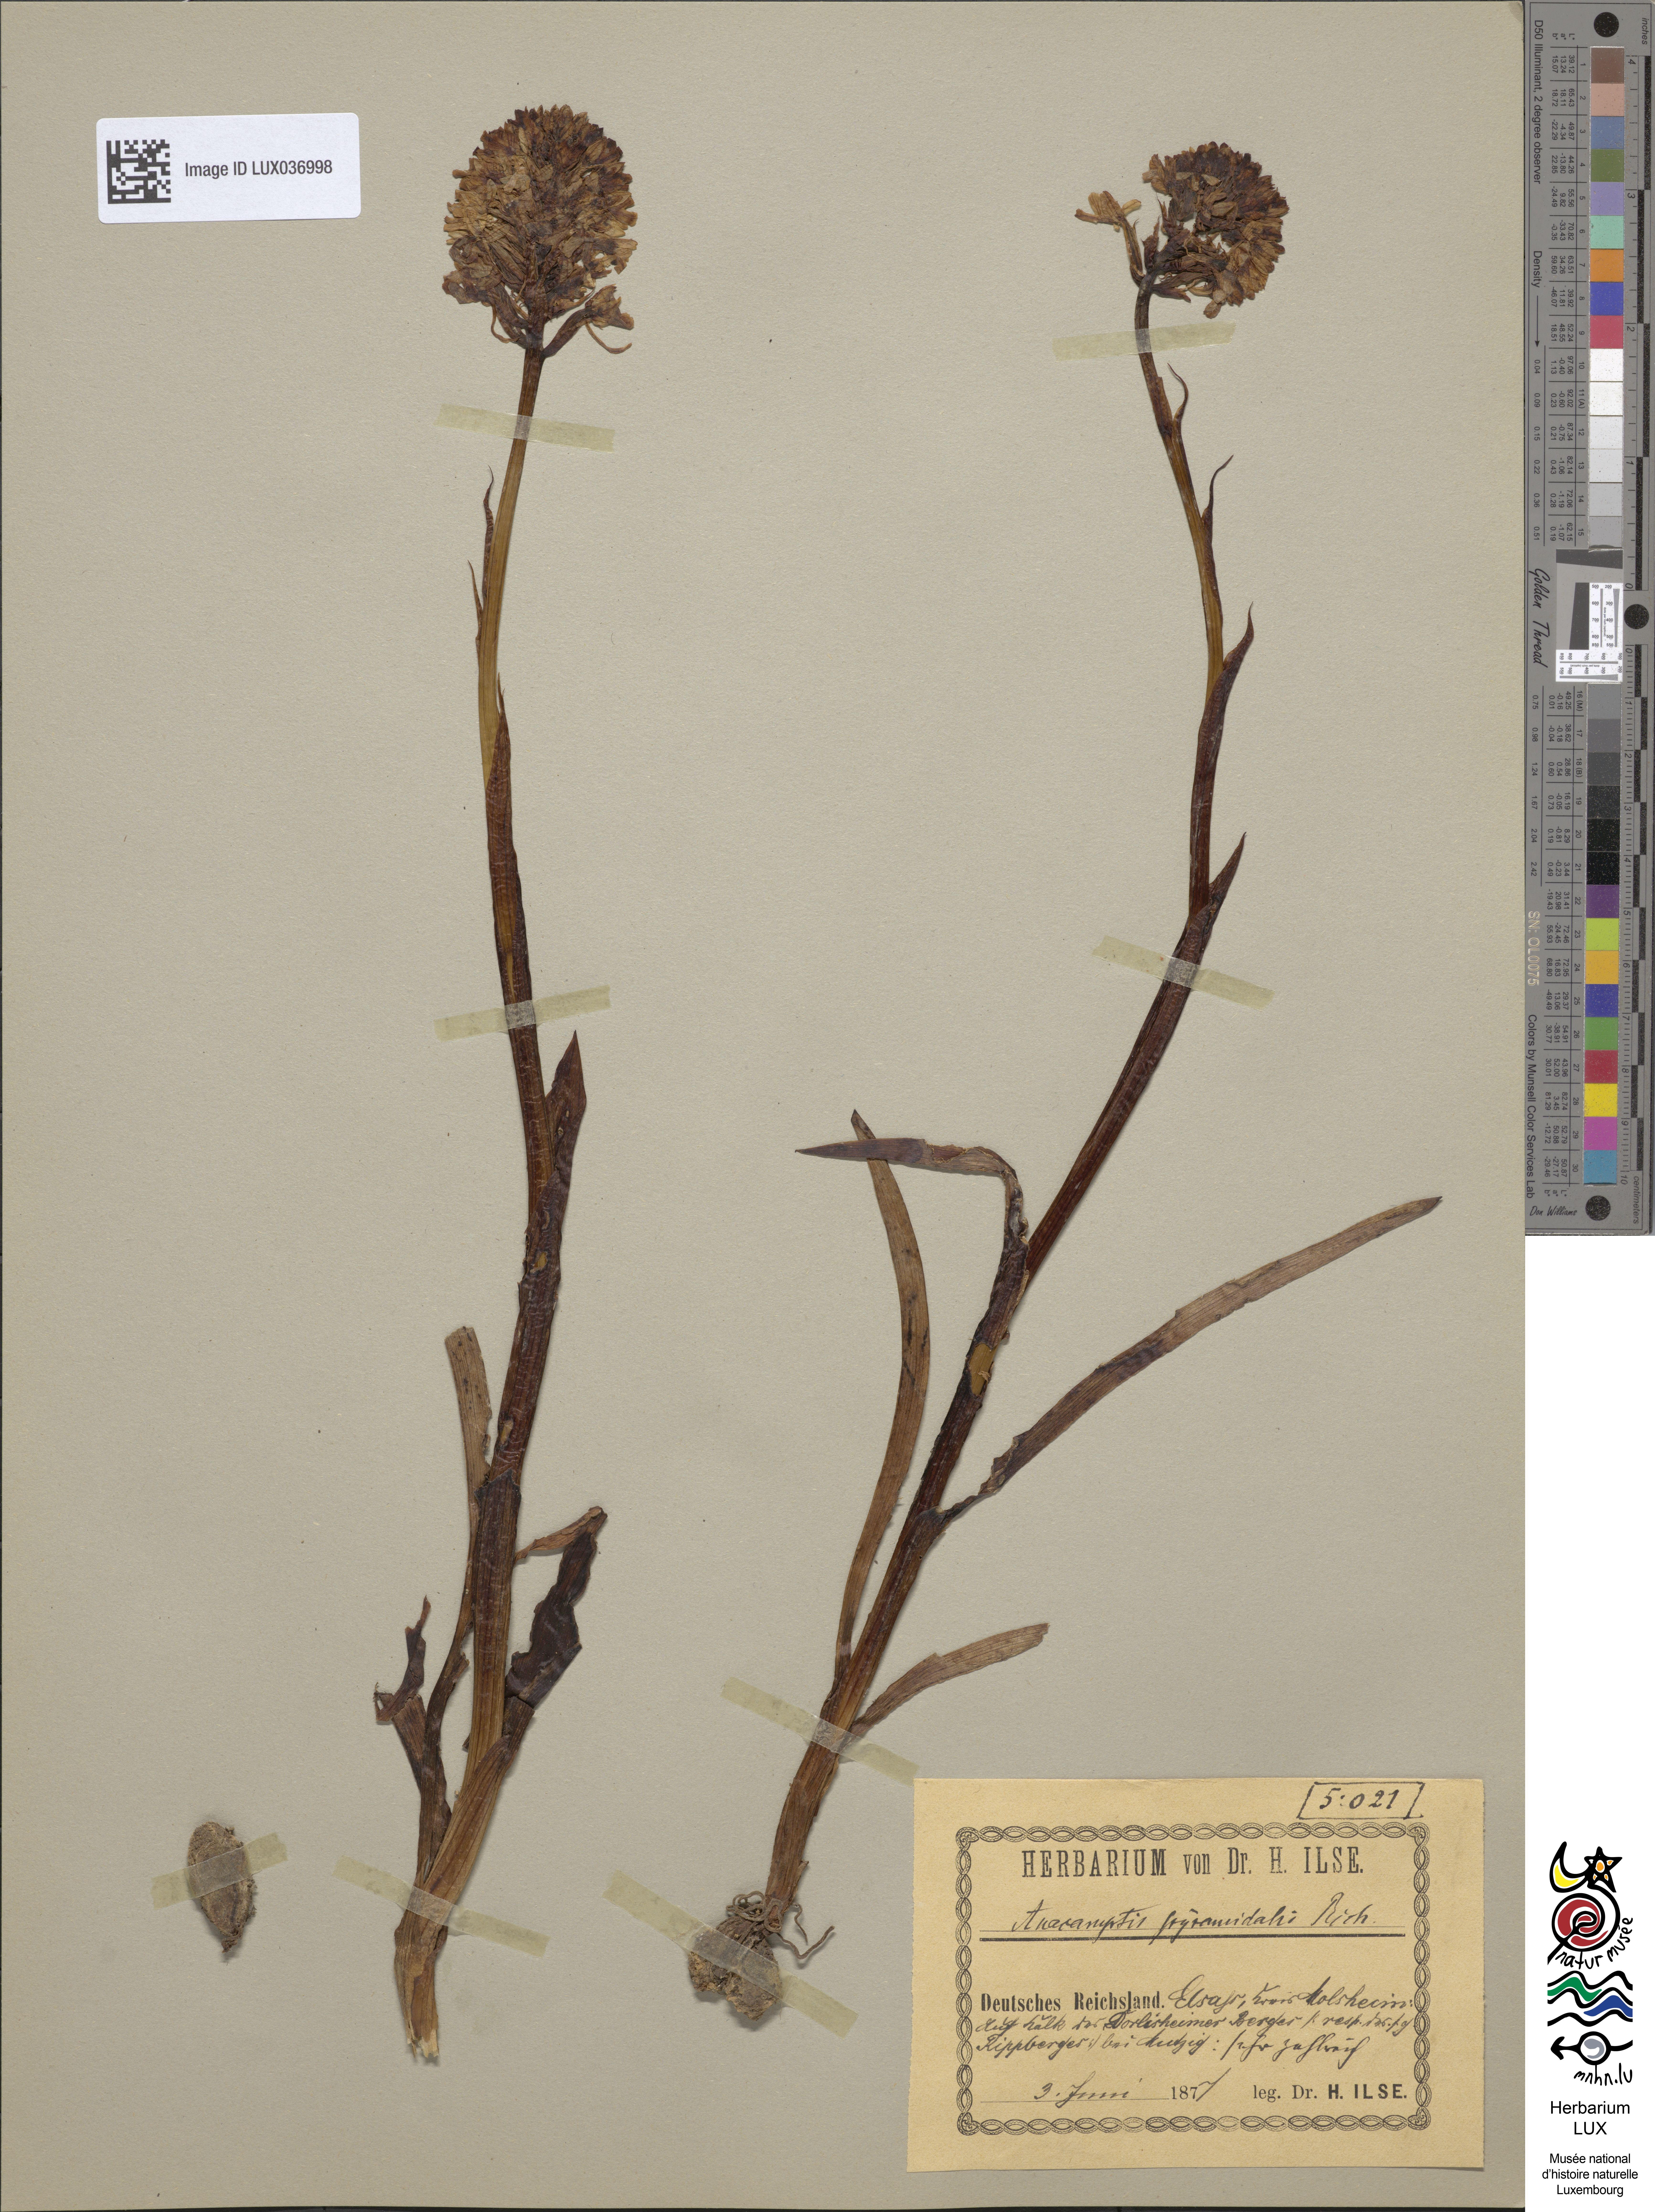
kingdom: Plantae
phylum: Tracheophyta
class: Liliopsida
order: Asparagales
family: Orchidaceae
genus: Anacamptis
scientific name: Anacamptis pyramidalis
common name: Pyramidal orchid
